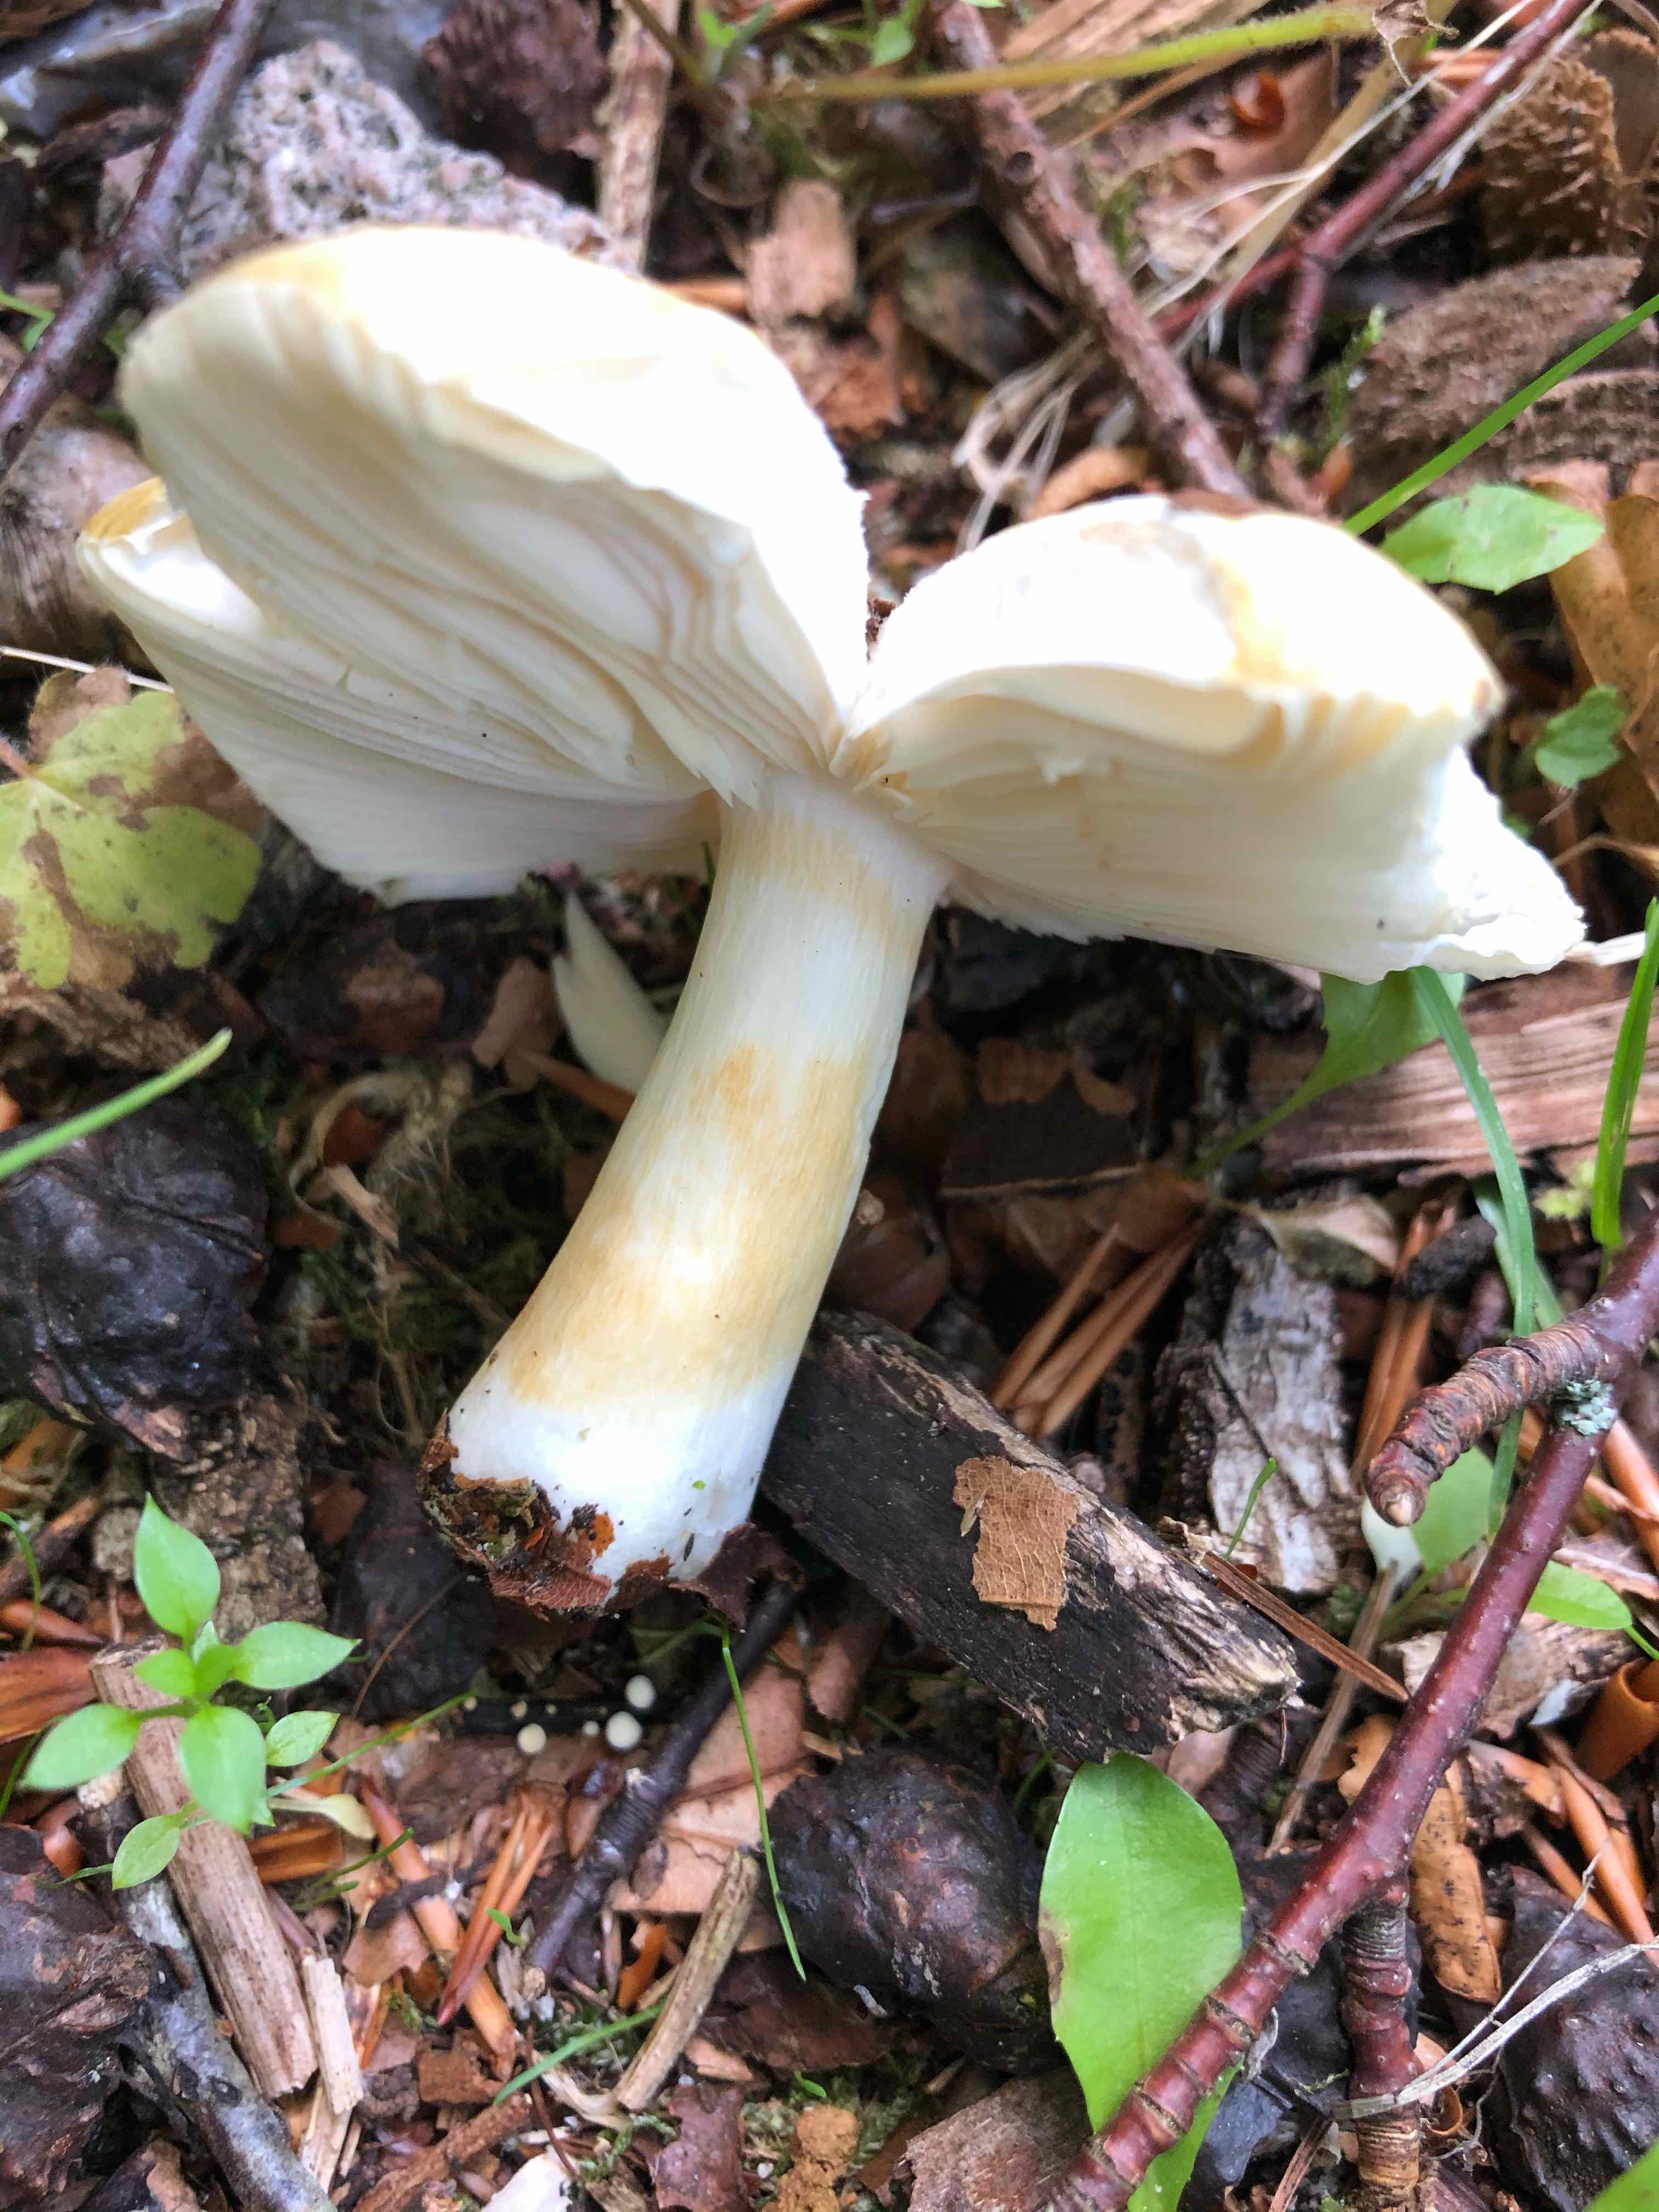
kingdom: Fungi
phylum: Basidiomycota
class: Agaricomycetes
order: Russulales
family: Russulaceae
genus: Russula
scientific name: Russula
